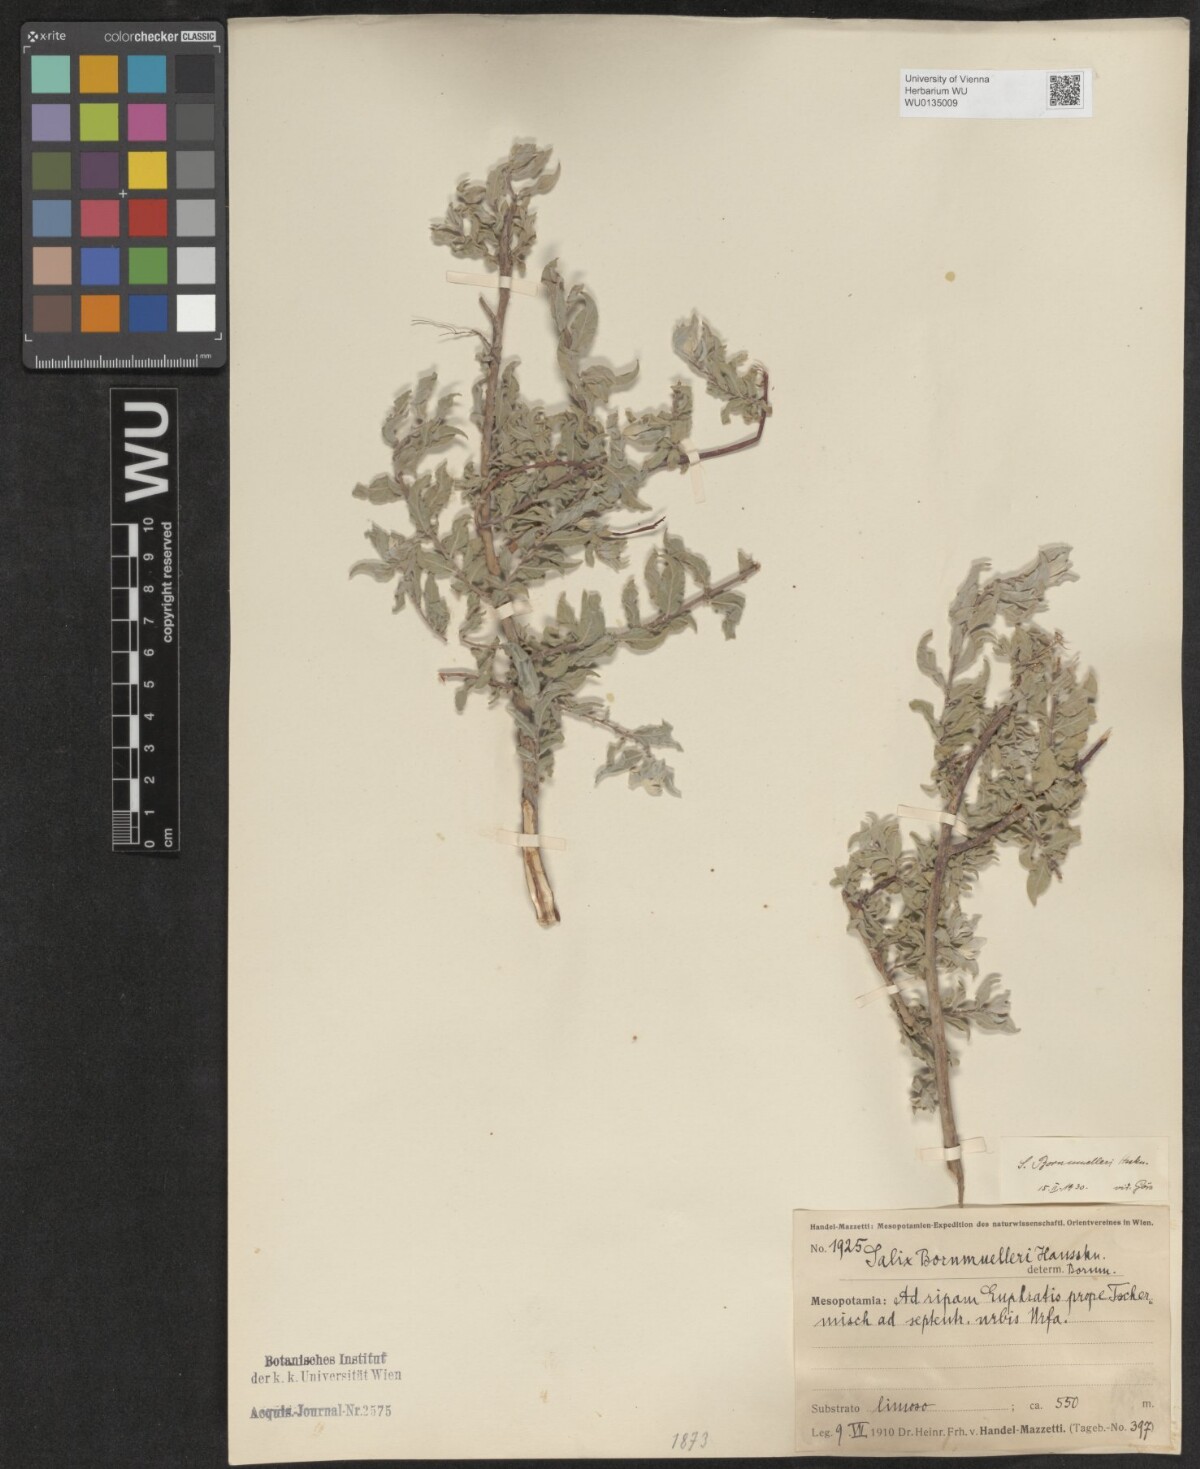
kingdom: Plantae
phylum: Tracheophyta
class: Magnoliopsida
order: Malpighiales
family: Salicaceae
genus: Salix
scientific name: Salix triandra
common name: Almond willow
